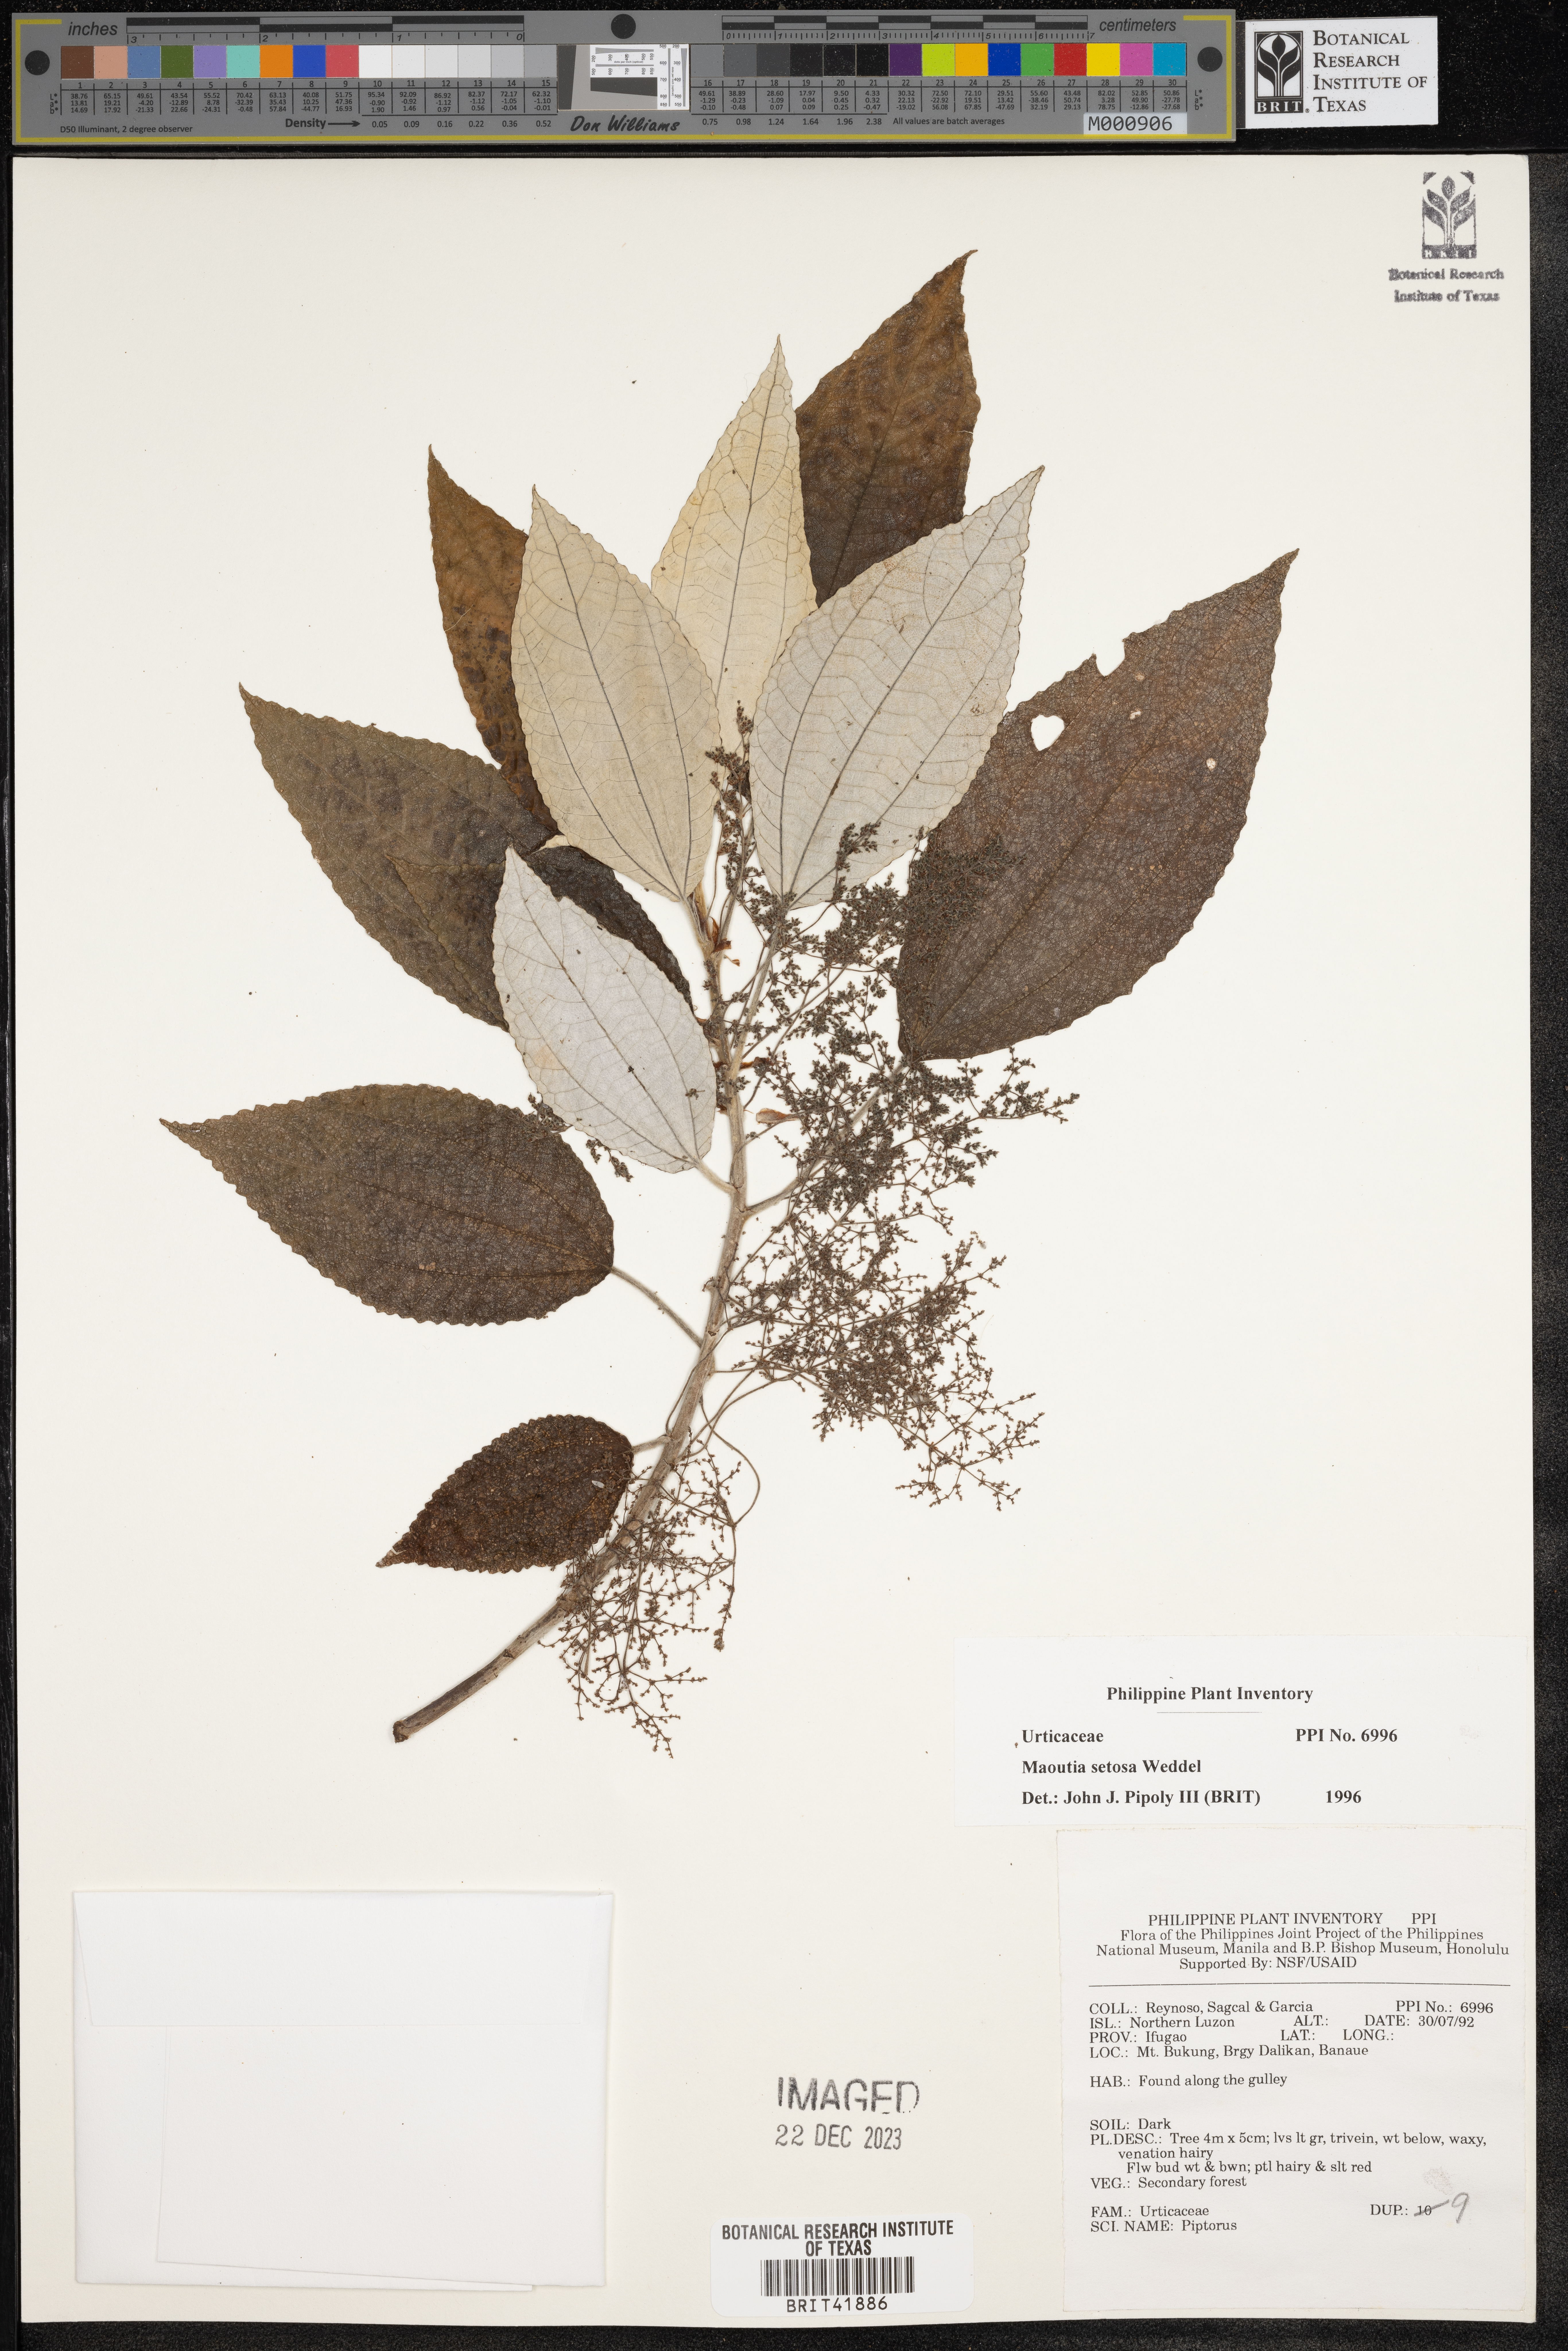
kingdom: Plantae
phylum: Tracheophyta
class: Magnoliopsida
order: Rosales
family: Urticaceae
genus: Maoutia
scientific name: Maoutia setosa
